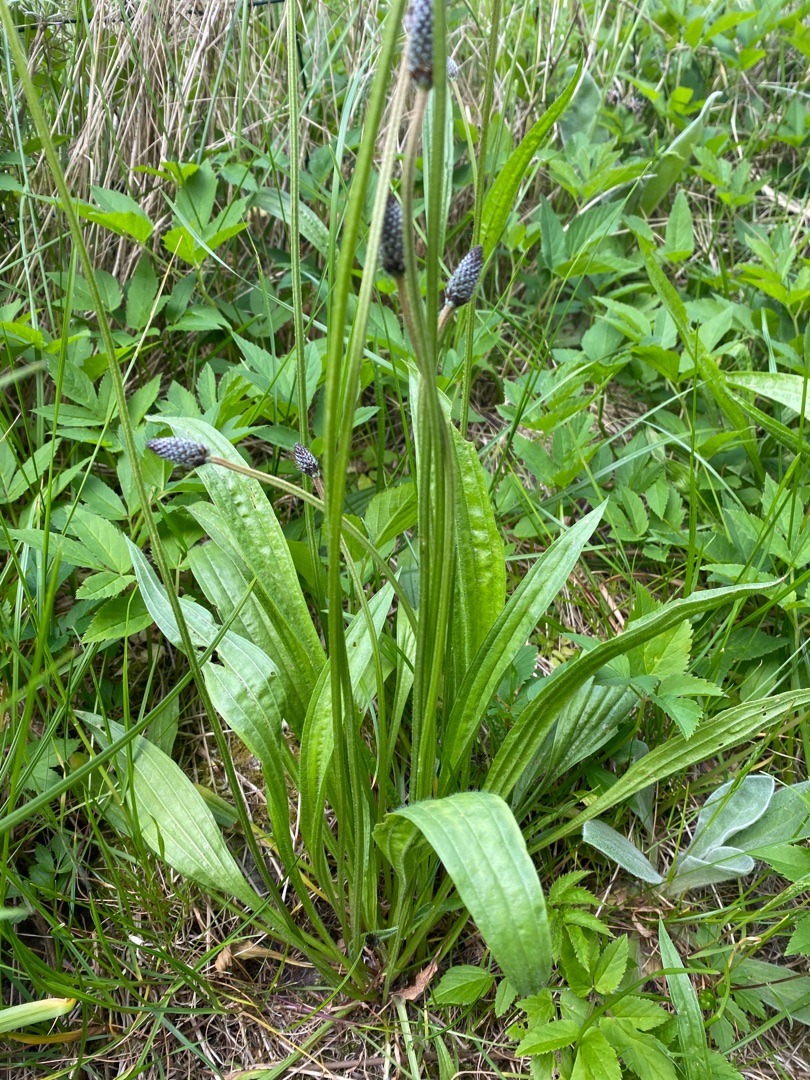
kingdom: Plantae
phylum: Tracheophyta
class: Magnoliopsida
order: Lamiales
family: Plantaginaceae
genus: Plantago
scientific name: Plantago lanceolata
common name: Lancet-vejbred
